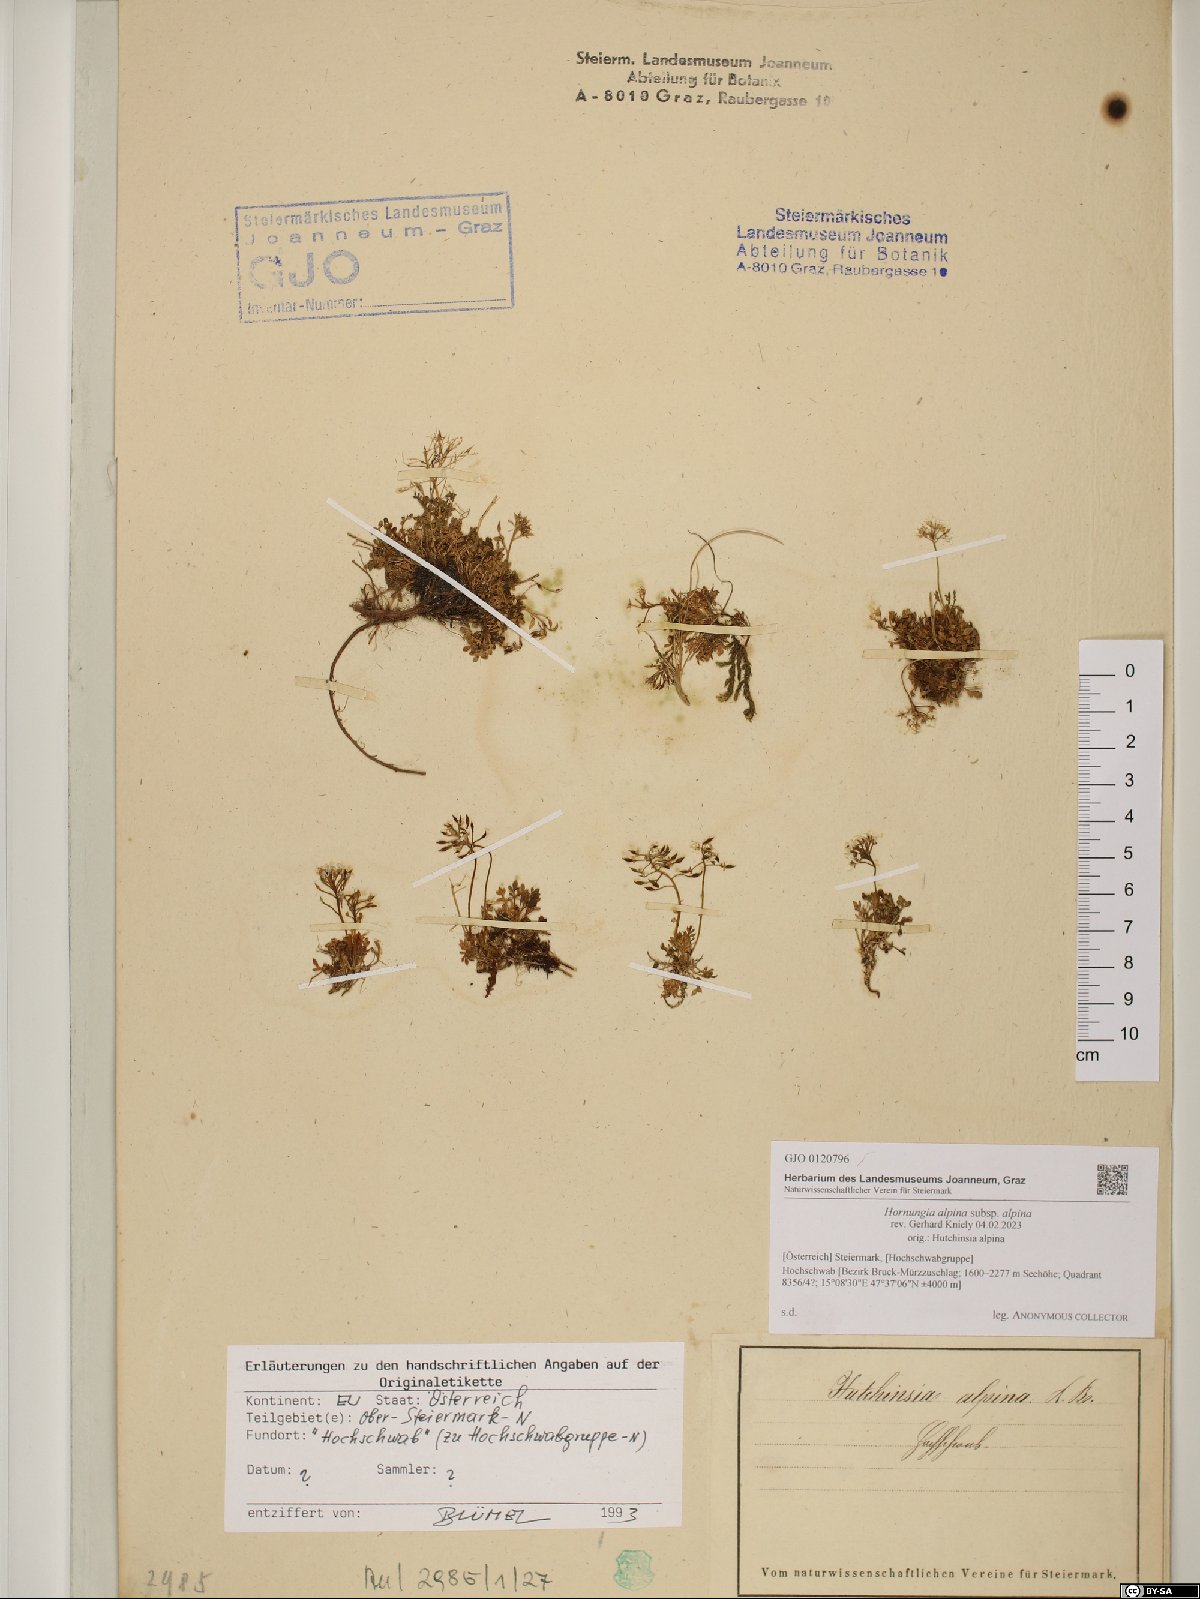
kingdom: Plantae
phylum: Tracheophyta
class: Magnoliopsida
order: Brassicales
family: Brassicaceae
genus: Hornungia
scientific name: Hornungia alpina
